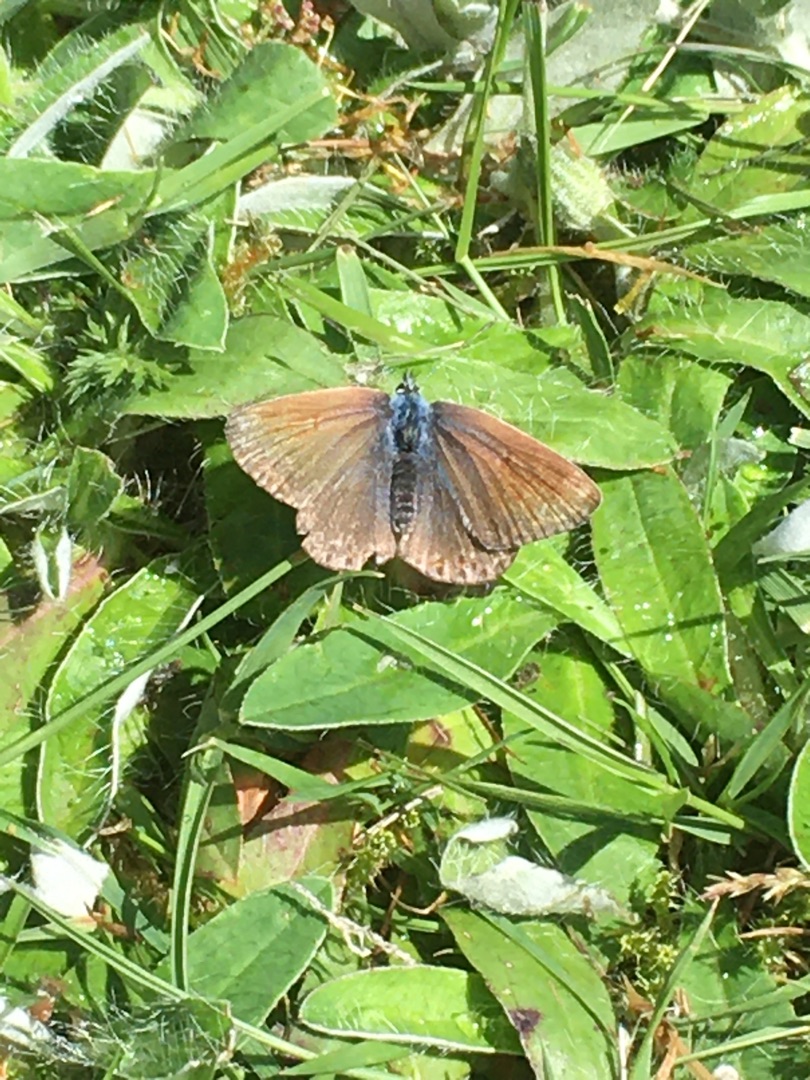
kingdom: Animalia
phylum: Arthropoda
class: Insecta
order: Lepidoptera
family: Lycaenidae
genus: Polyommatus
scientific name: Polyommatus icarus
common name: Almindelig blåfugl
